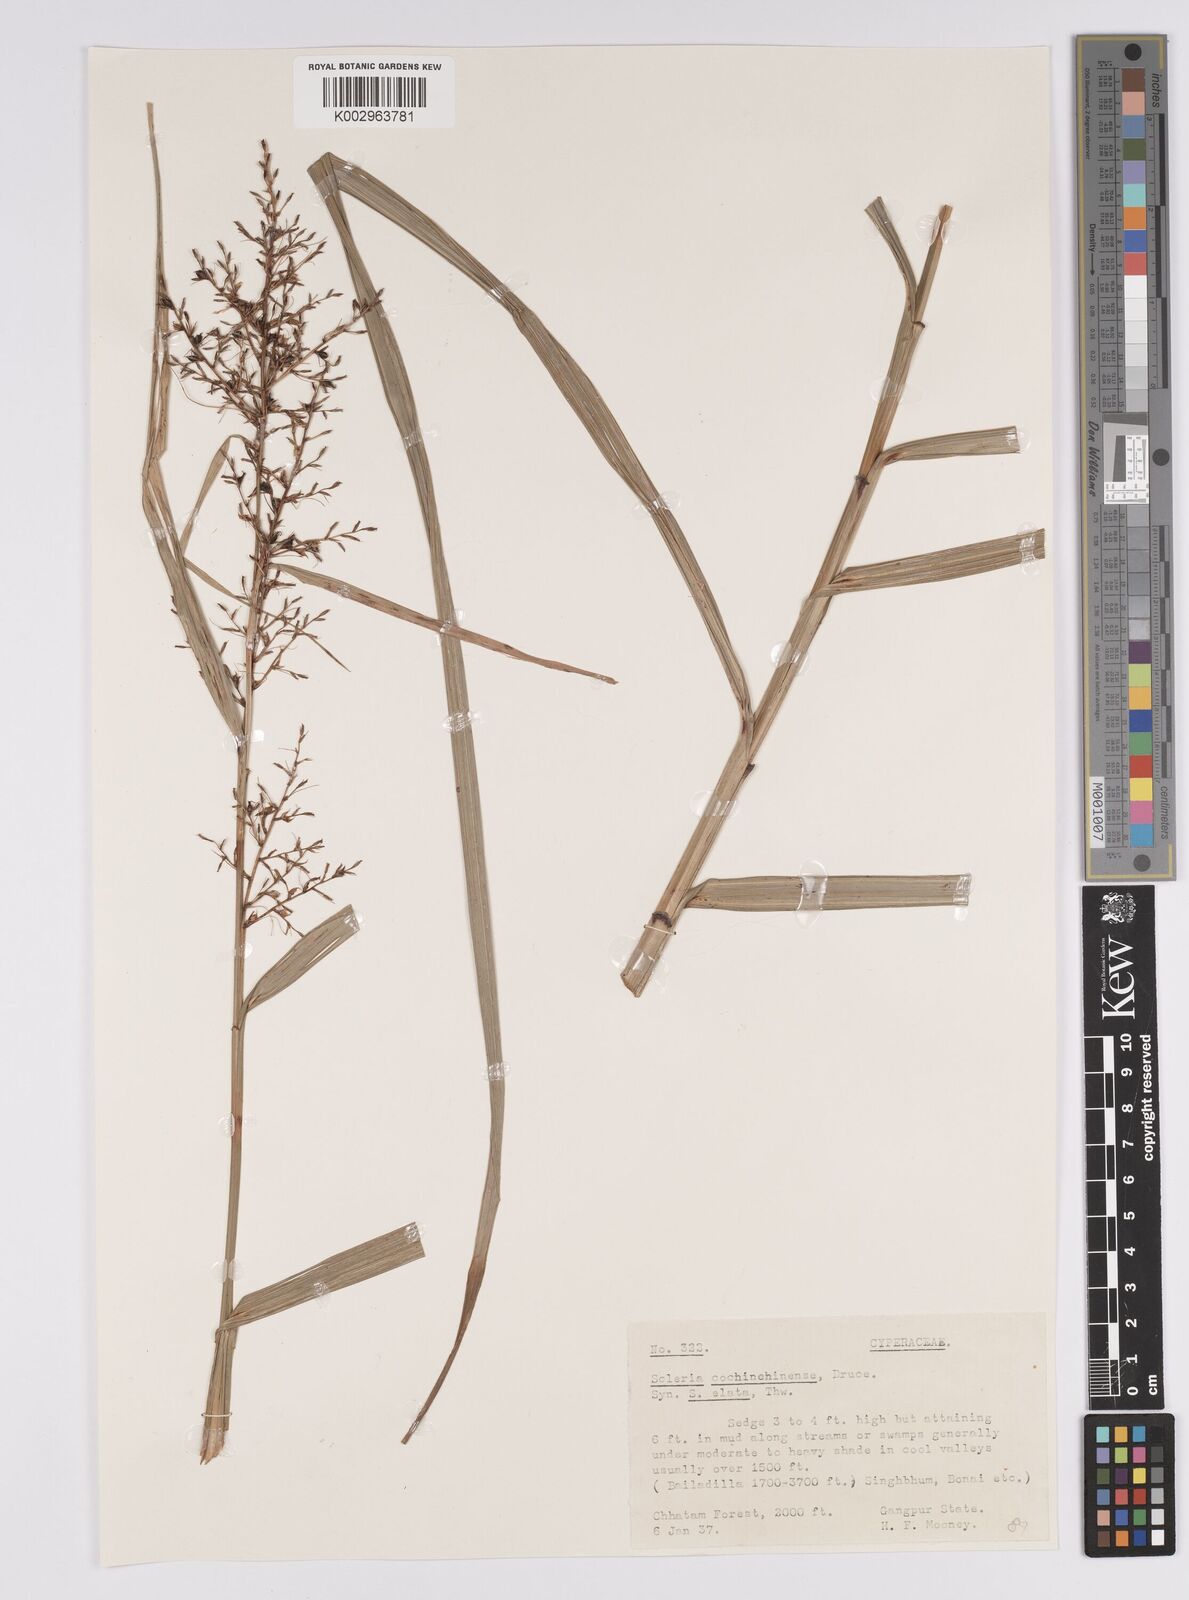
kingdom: Plantae
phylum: Tracheophyta
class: Liliopsida
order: Poales
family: Cyperaceae
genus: Scleria
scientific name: Scleria terrestris
